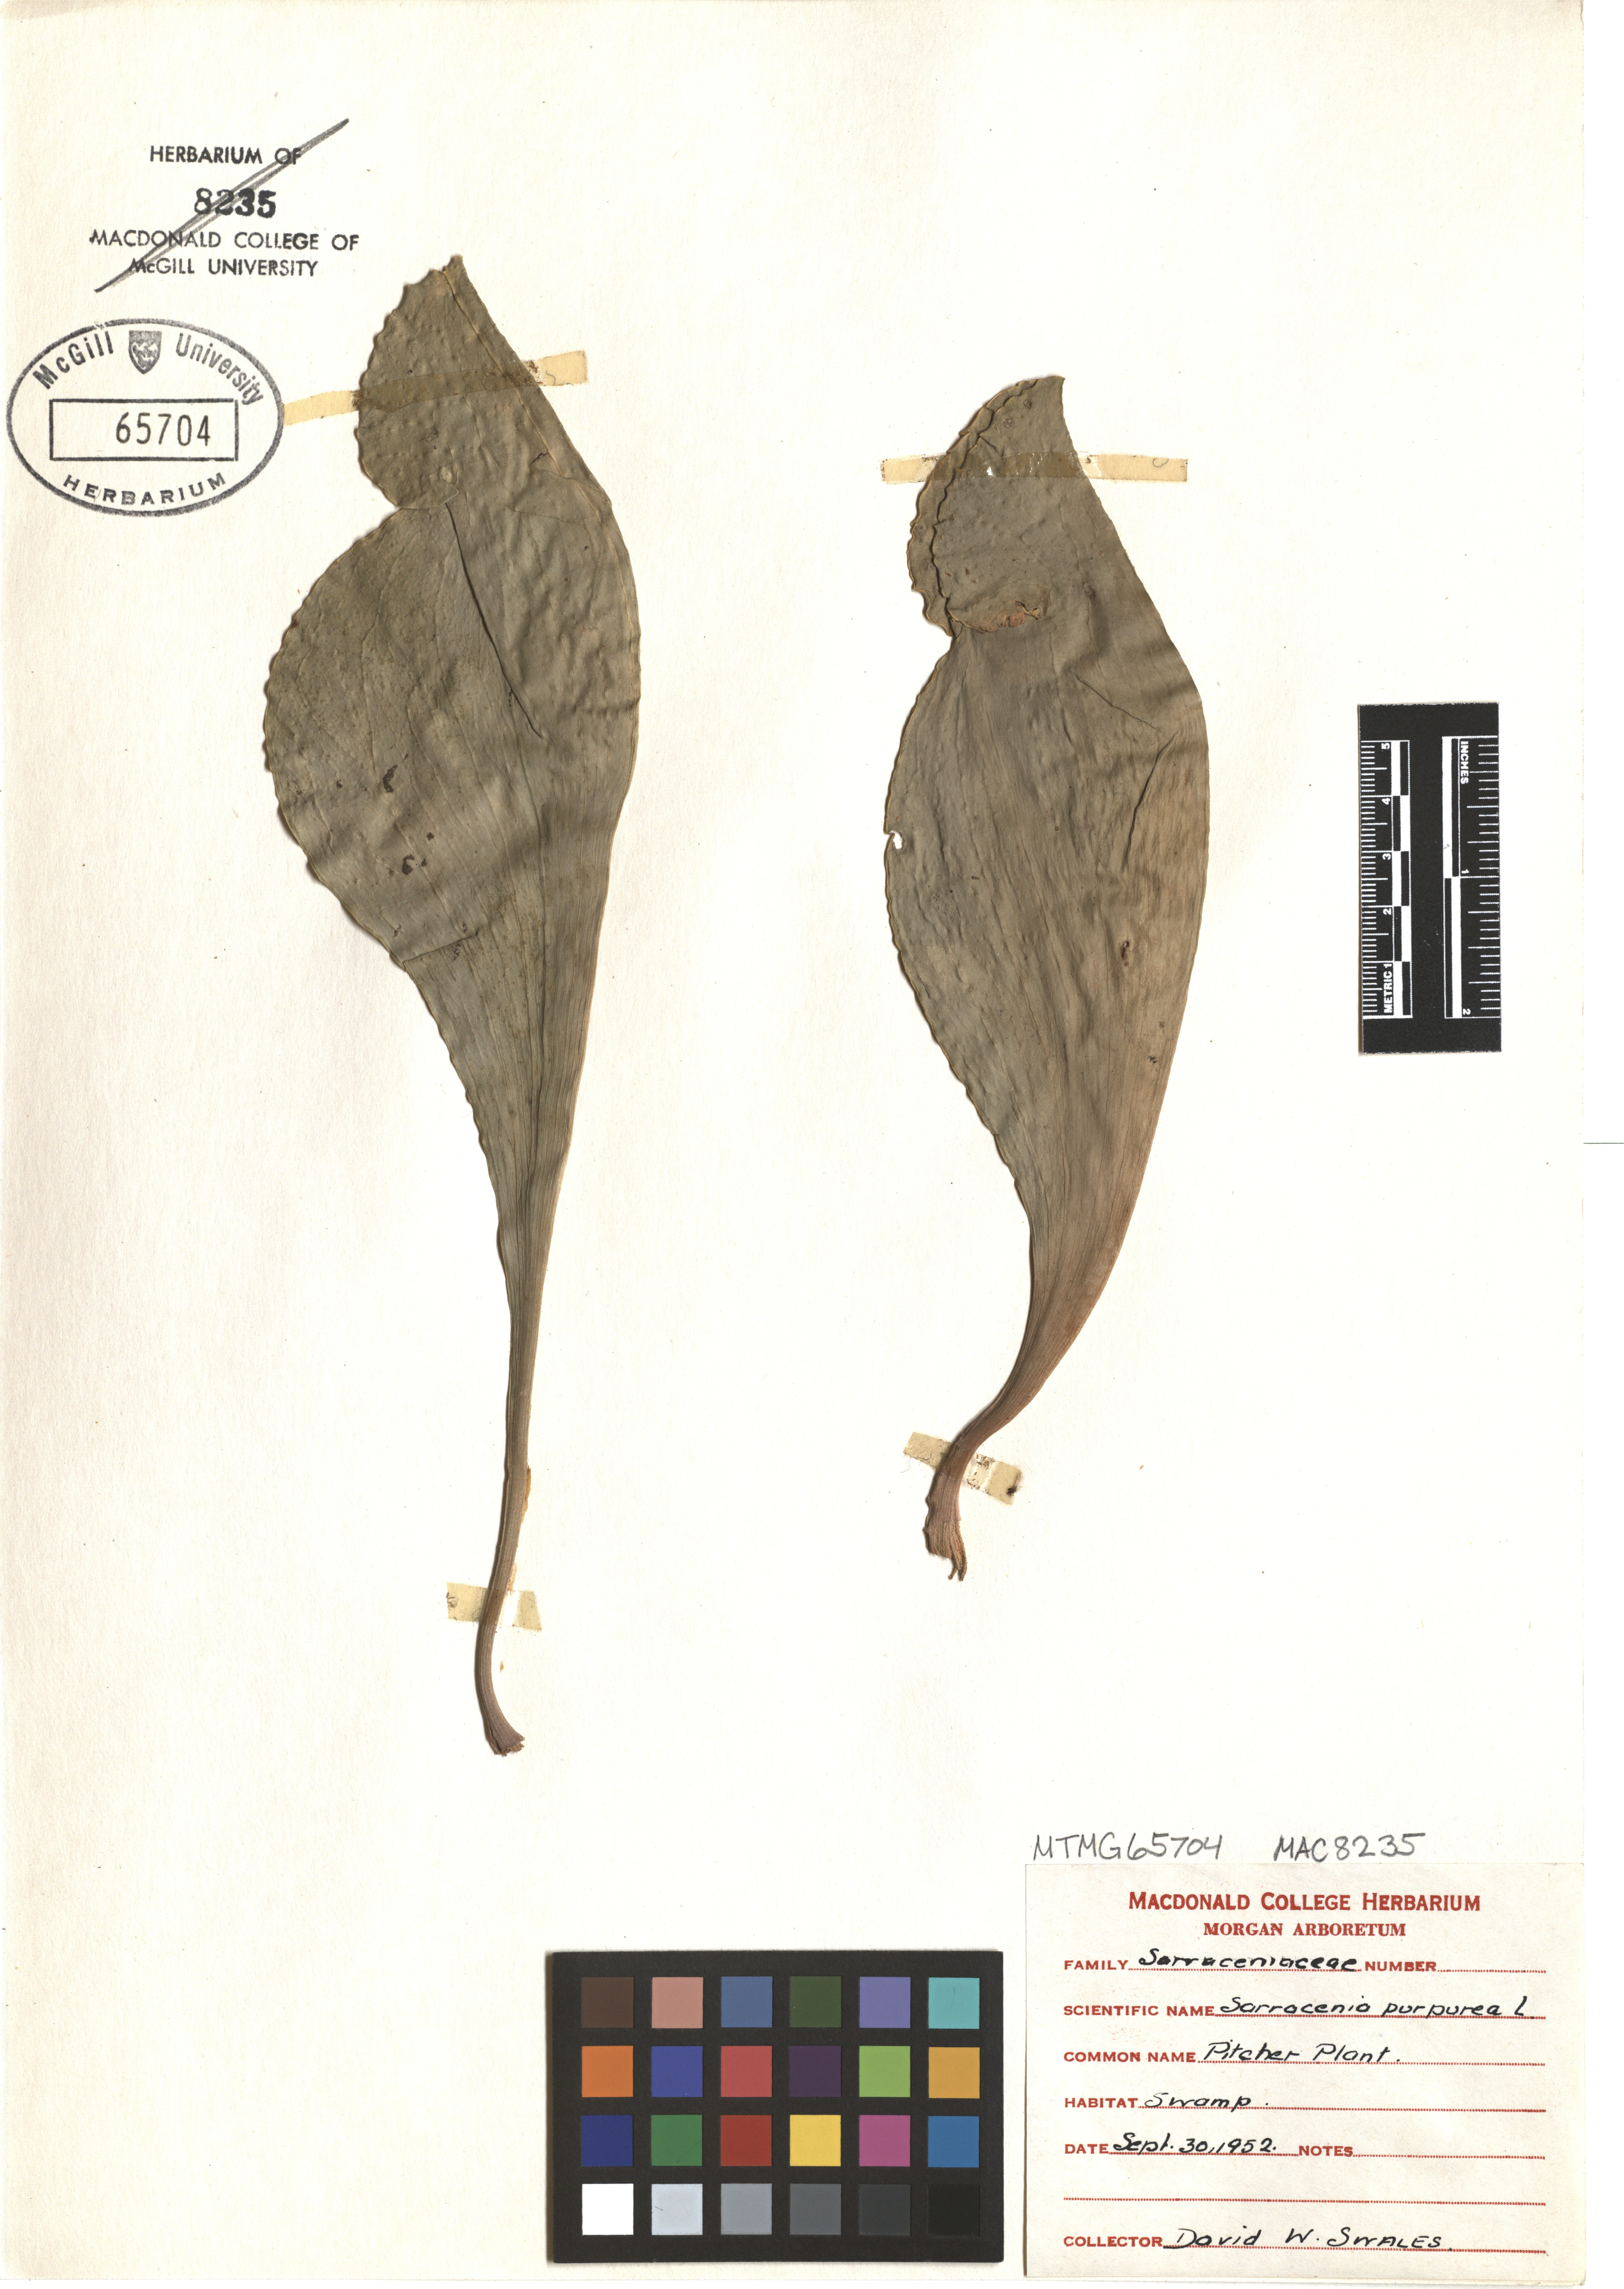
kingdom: Plantae
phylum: Tracheophyta
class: Magnoliopsida
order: Ericales
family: Sarraceniaceae
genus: Sarracenia
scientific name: Sarracenia purpurea
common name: Pitcherplant
